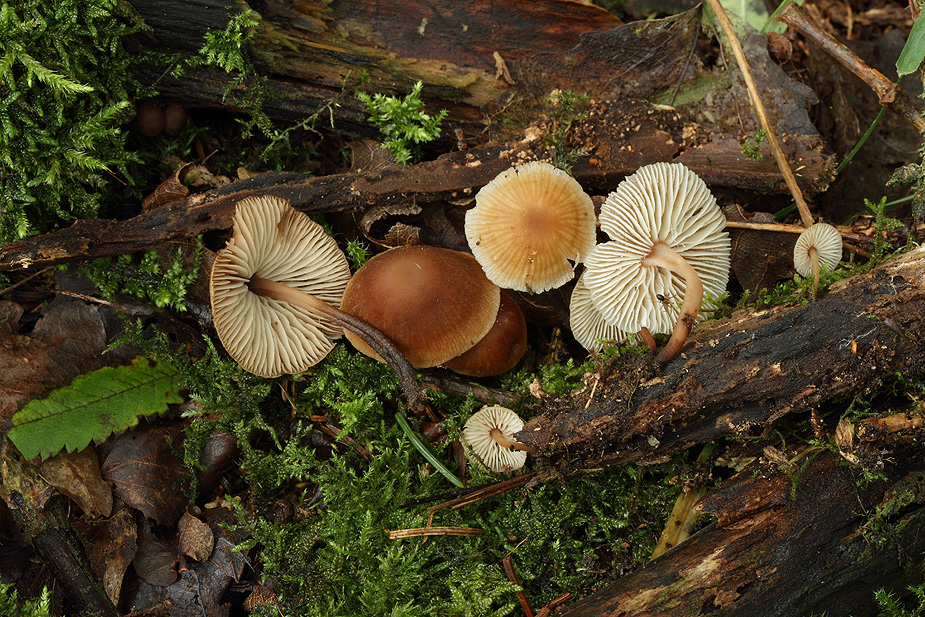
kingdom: Fungi
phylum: Basidiomycota
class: Agaricomycetes
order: Agaricales
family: Omphalotaceae
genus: Gymnopus
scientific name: Gymnopus inodorus
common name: lugtløs fladhat
